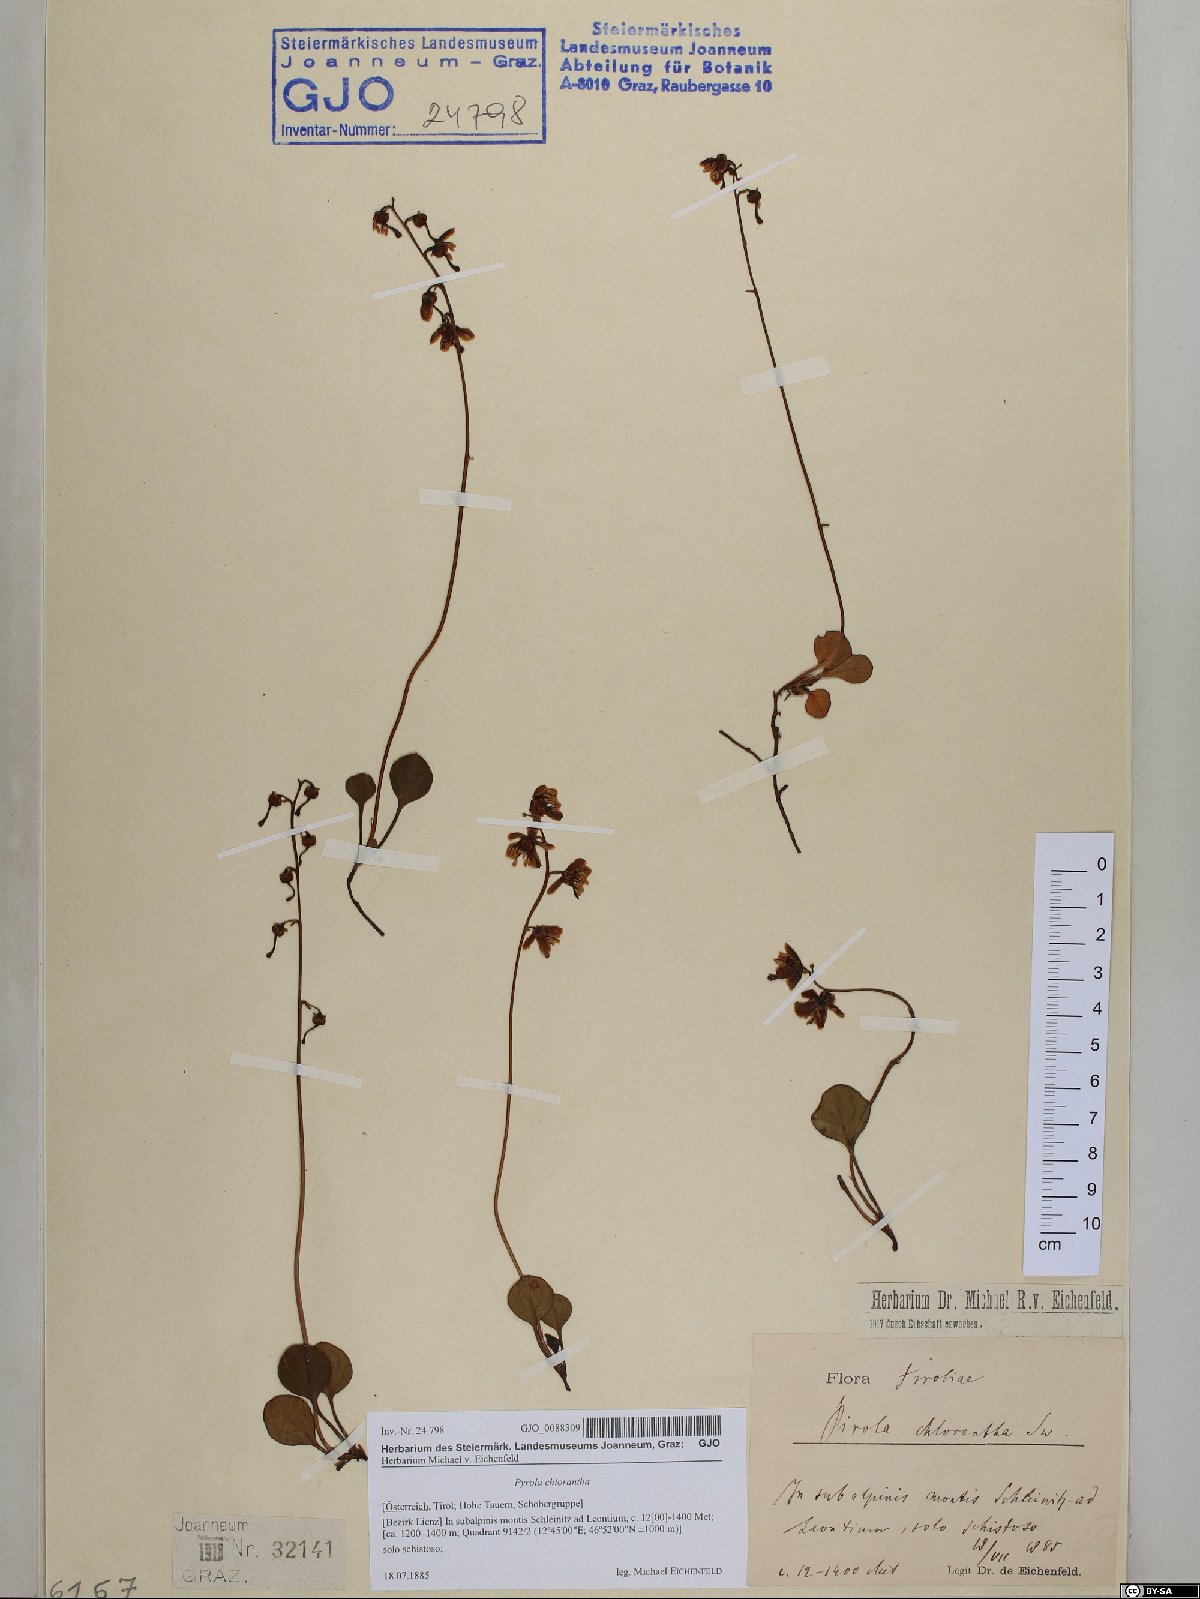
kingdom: Plantae
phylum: Tracheophyta
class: Magnoliopsida
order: Ericales
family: Ericaceae
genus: Pyrola
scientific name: Pyrola chlorantha
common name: Green wintergreen
